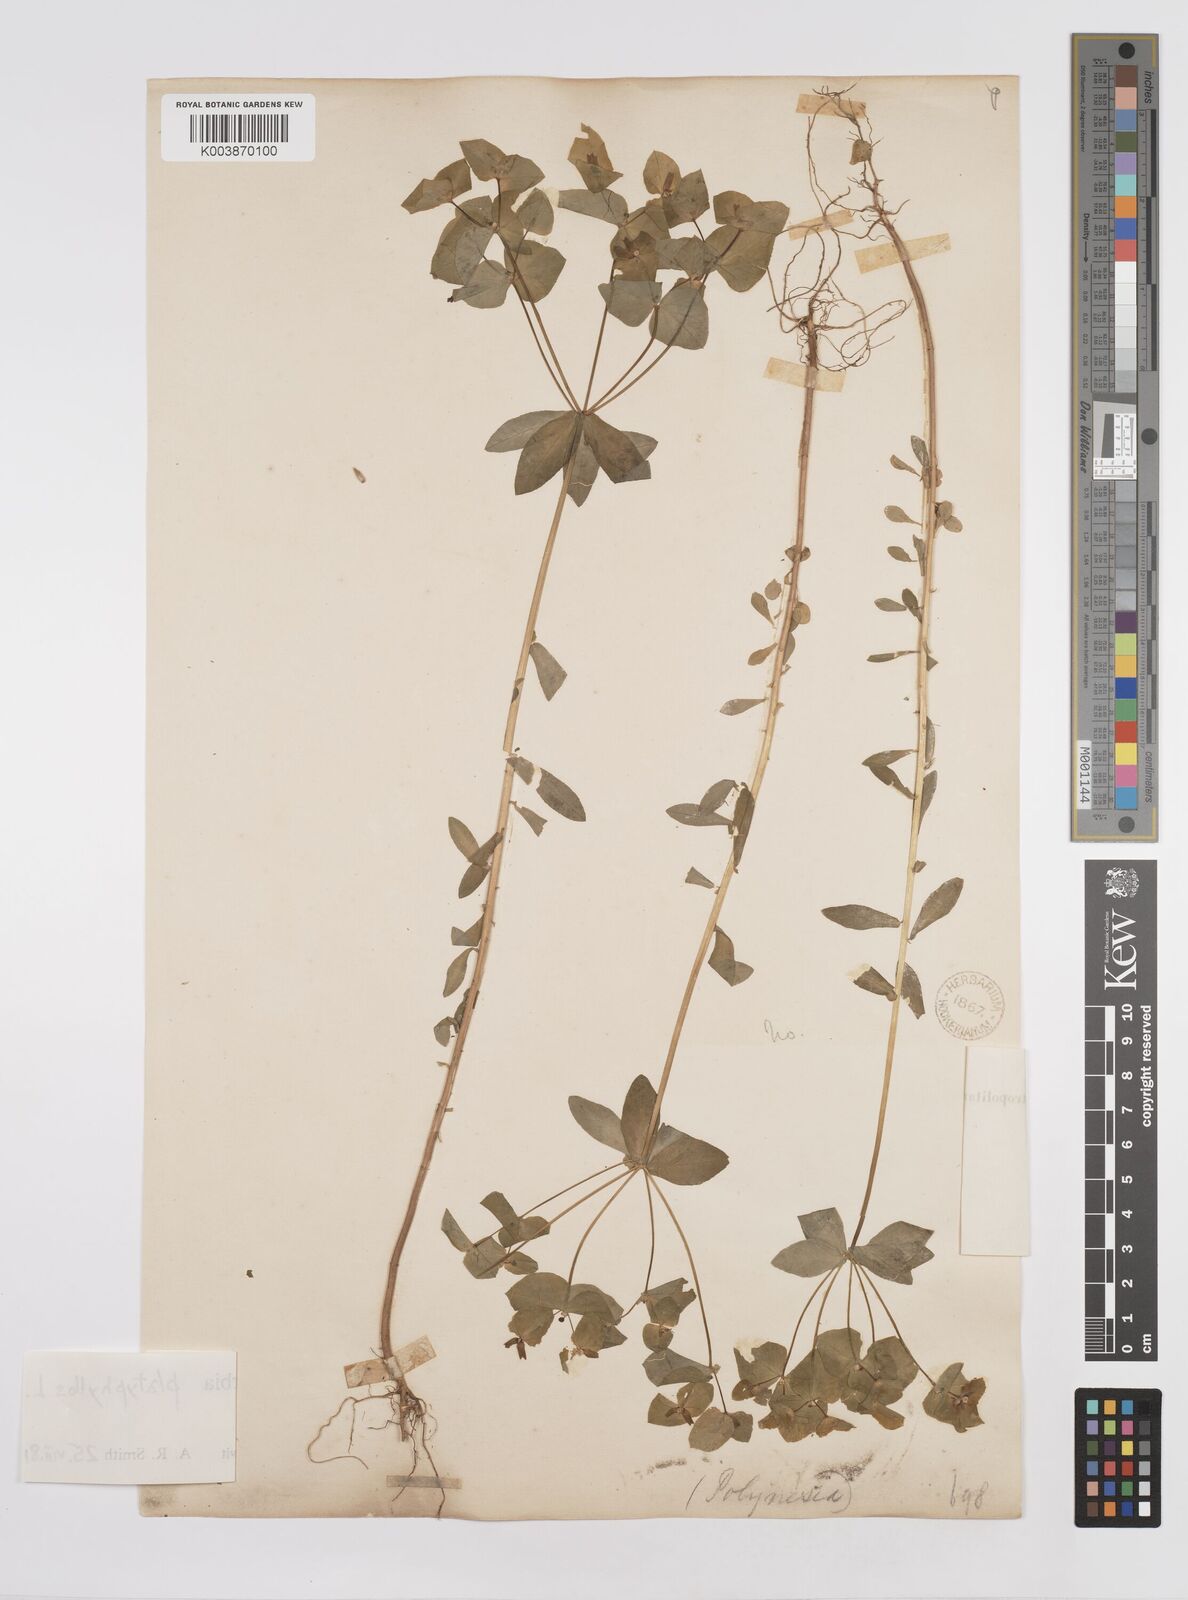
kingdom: Plantae
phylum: Tracheophyta
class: Magnoliopsida
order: Malpighiales
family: Euphorbiaceae
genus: Euphorbia
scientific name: Euphorbia platyphyllos
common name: Broad-leaved spurge
